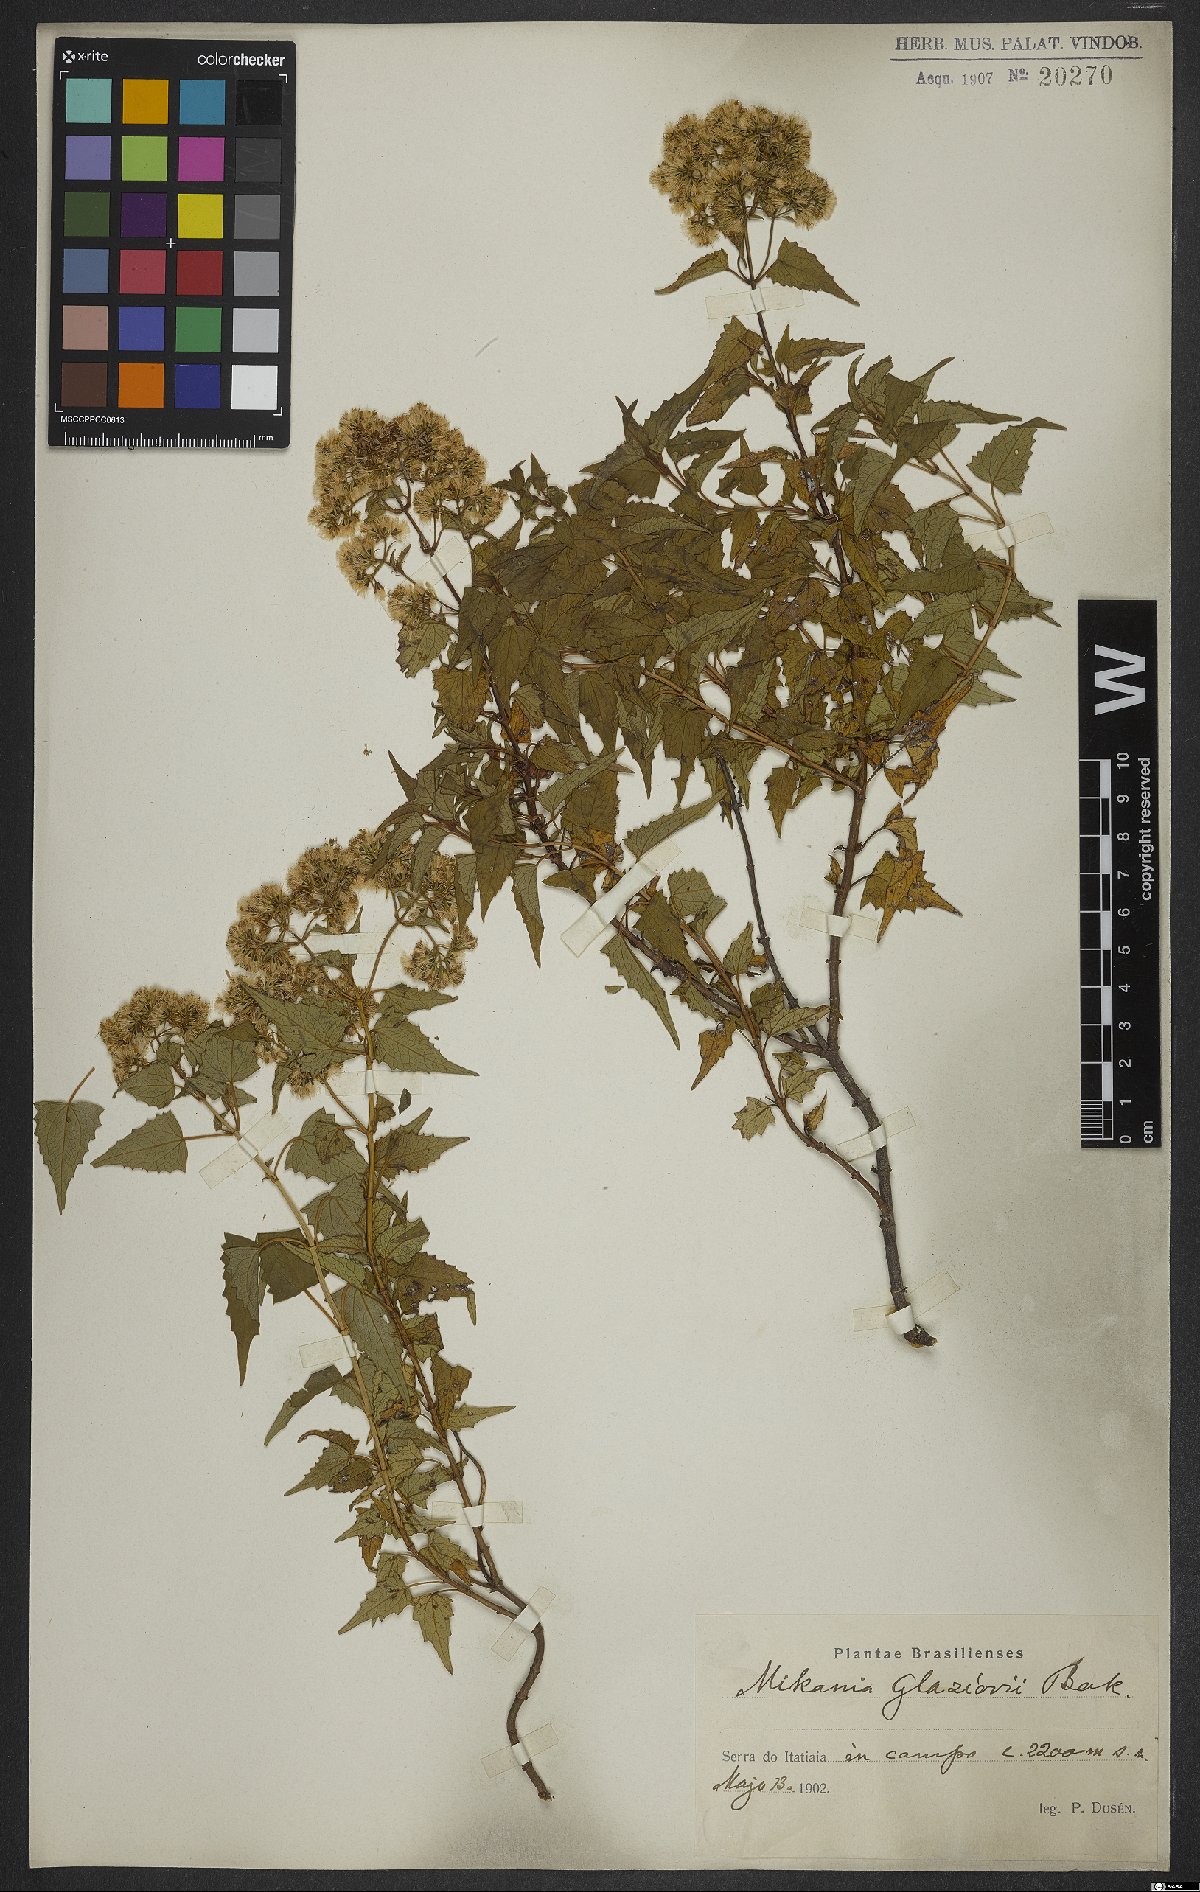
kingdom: Plantae
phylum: Tracheophyta
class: Magnoliopsida
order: Asterales
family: Asteraceae
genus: Mikania
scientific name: Mikania glaziovii
